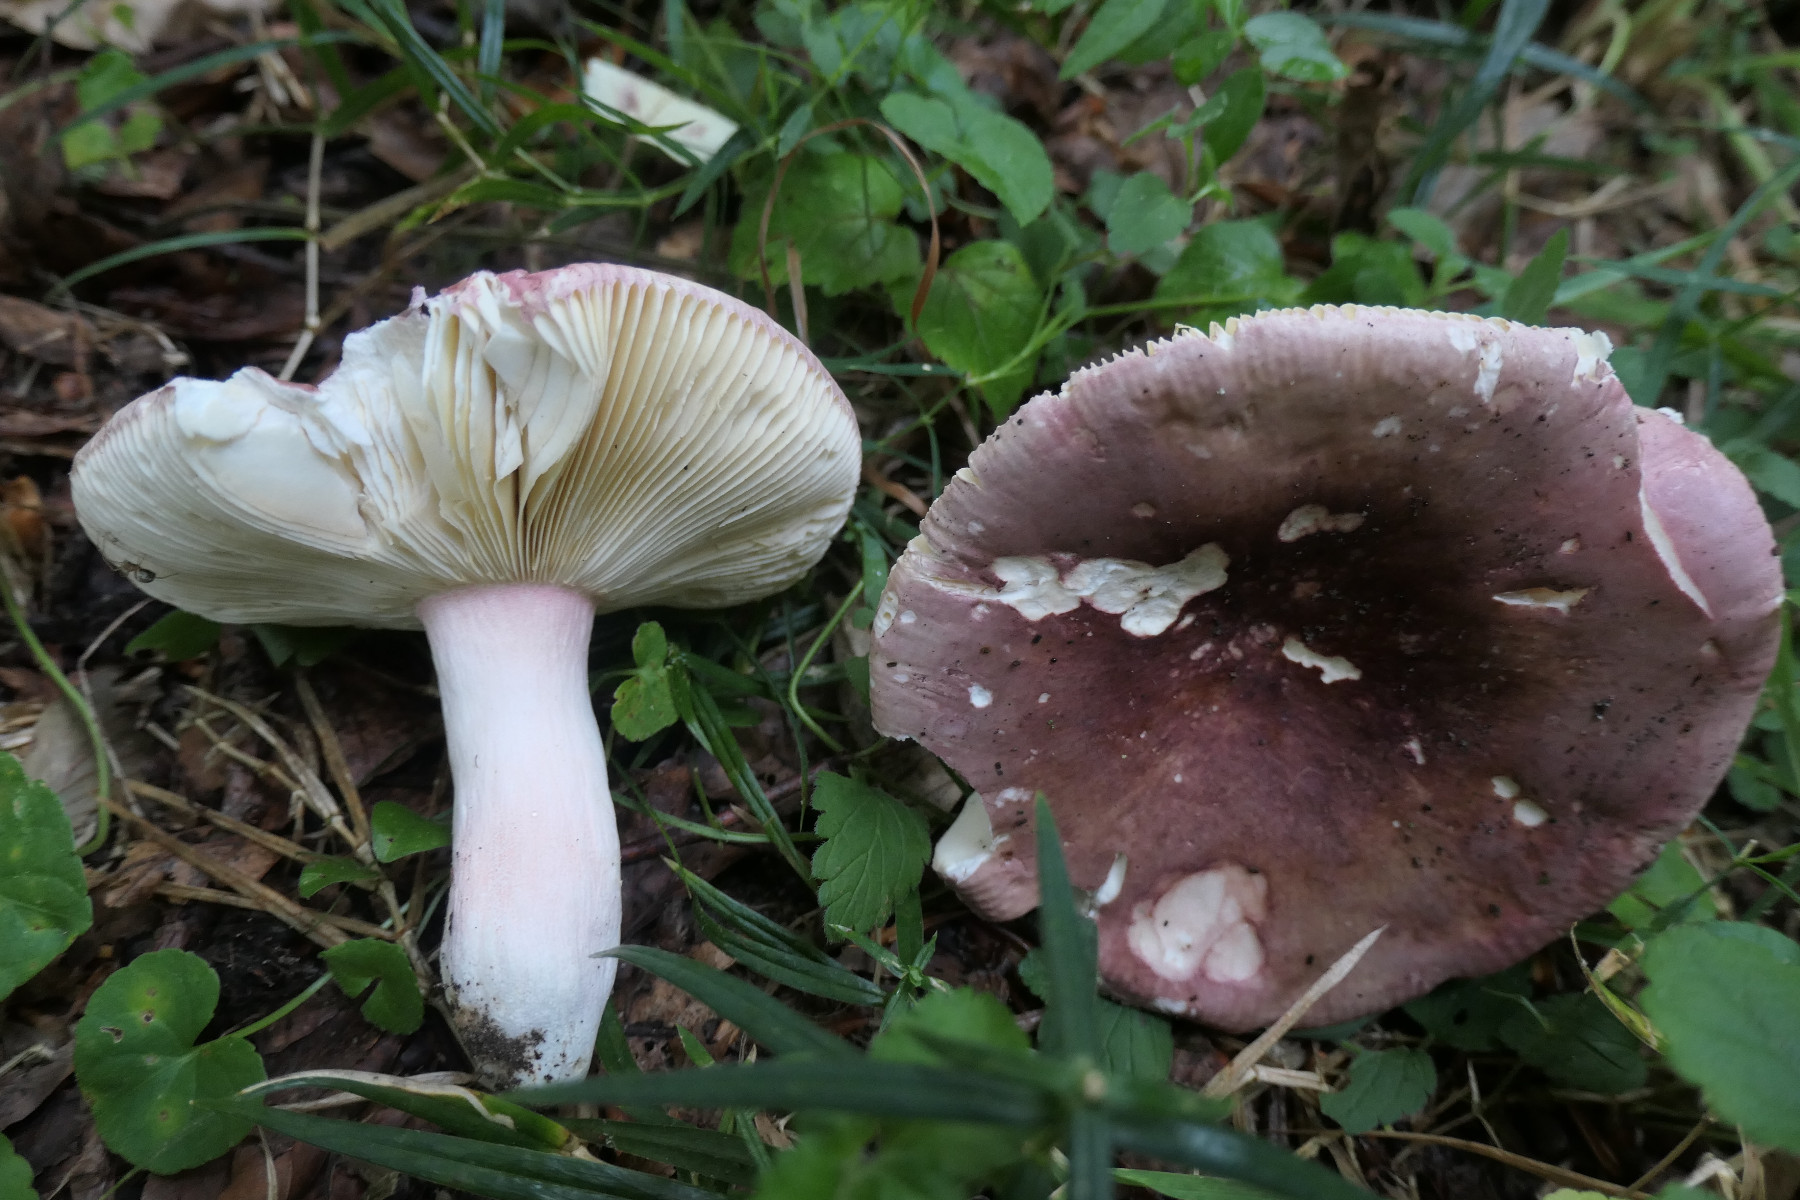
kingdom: Fungi
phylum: Basidiomycota
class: Agaricomycetes
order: Russulales
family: Russulaceae
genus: Russula
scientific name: Russula olivacea
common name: stor skørhat
